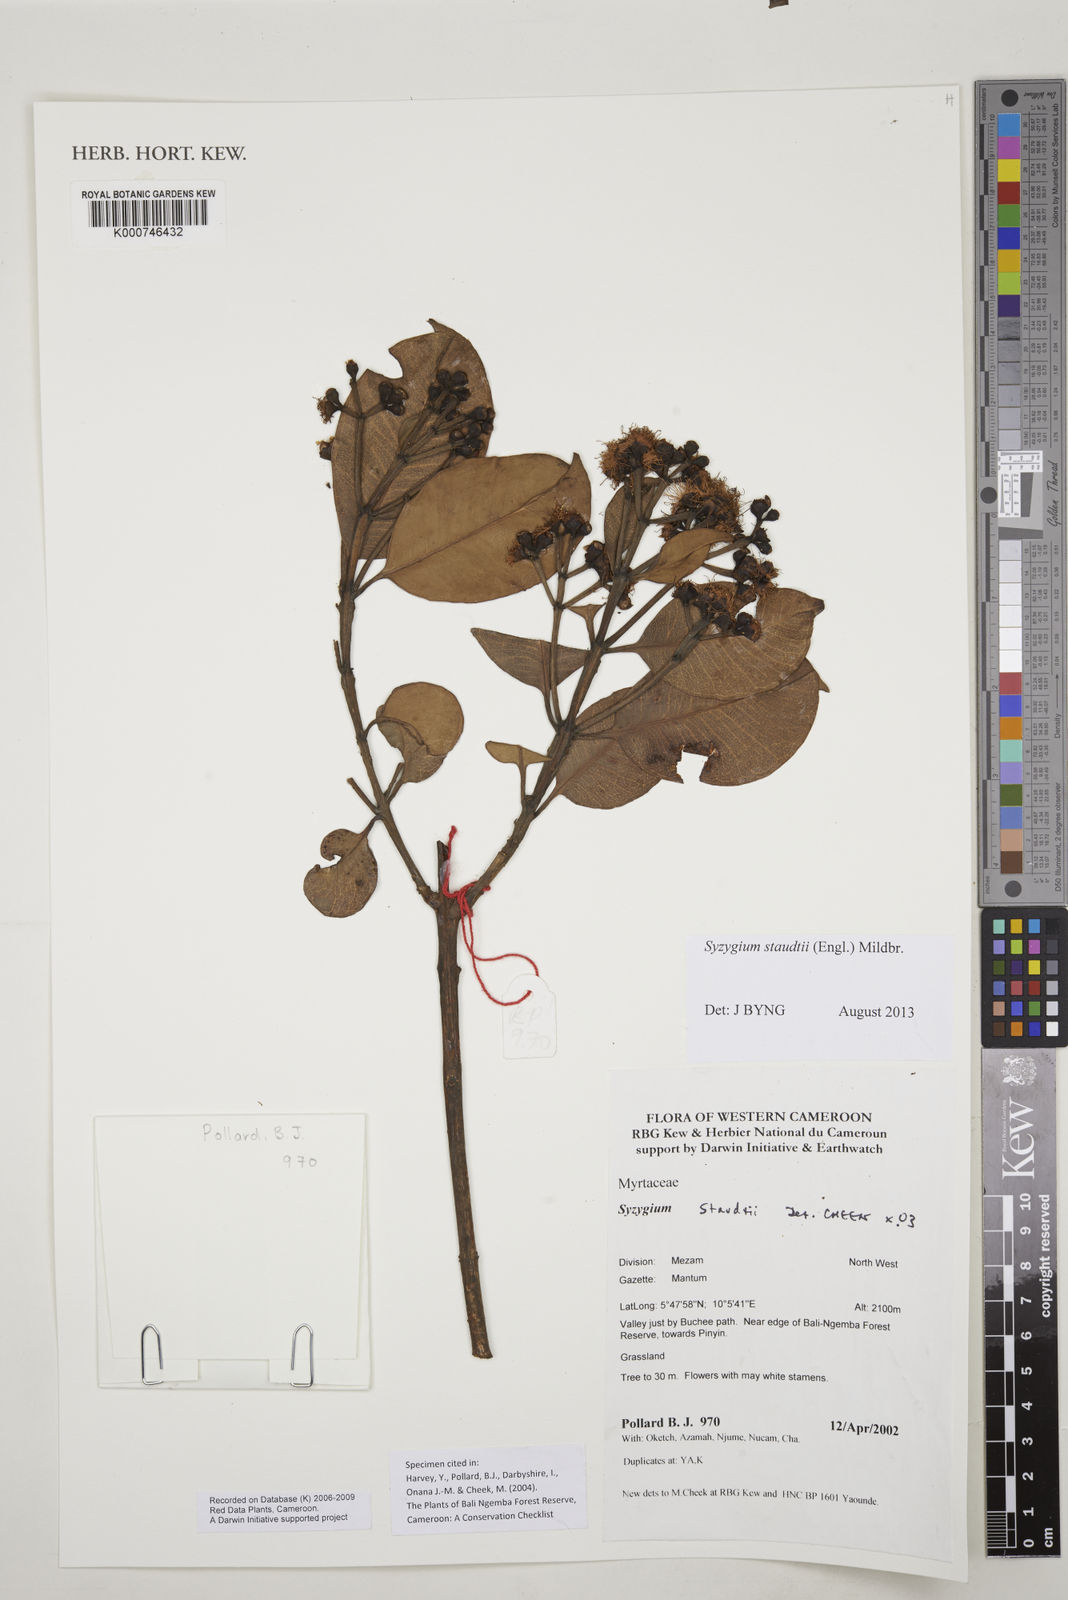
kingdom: Plantae
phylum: Tracheophyta
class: Magnoliopsida
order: Myrtales
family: Myrtaceae
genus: Syzygium
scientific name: Syzygium staudtii
